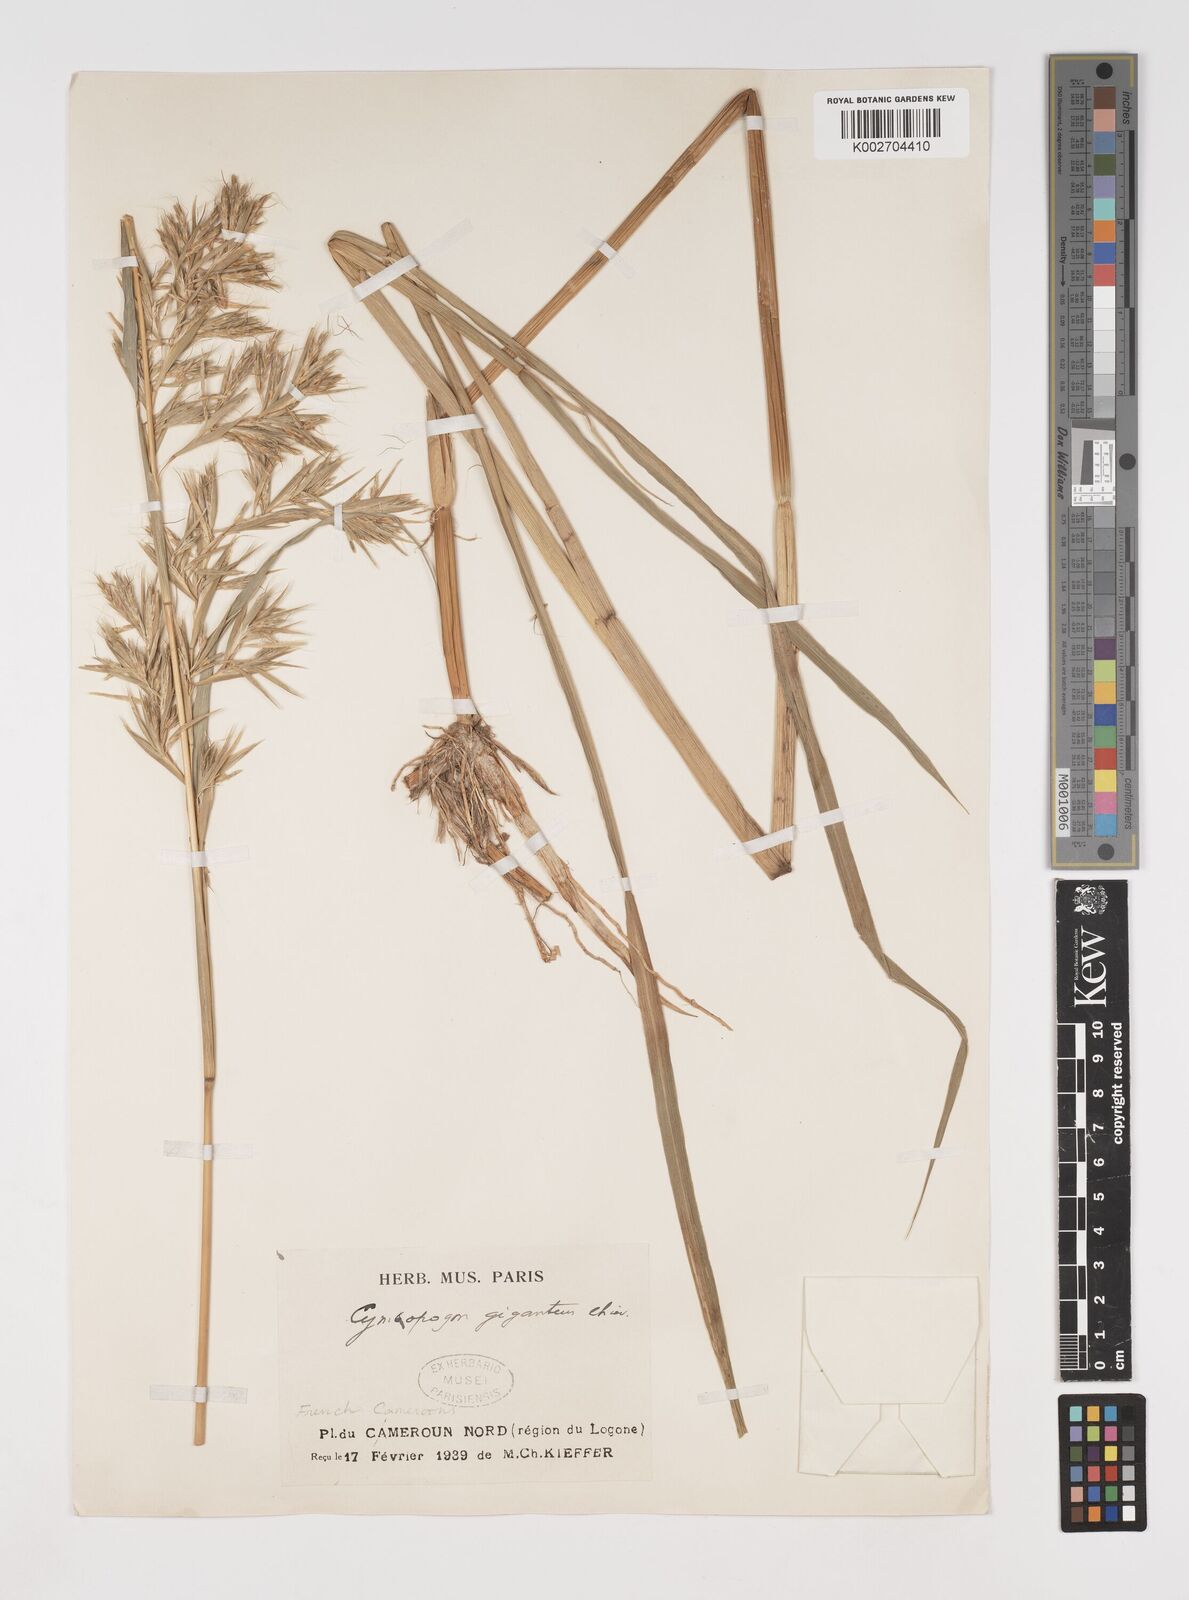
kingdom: Plantae
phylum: Tracheophyta
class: Liliopsida
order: Poales
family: Poaceae
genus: Cymbopogon
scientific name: Cymbopogon giganteus
